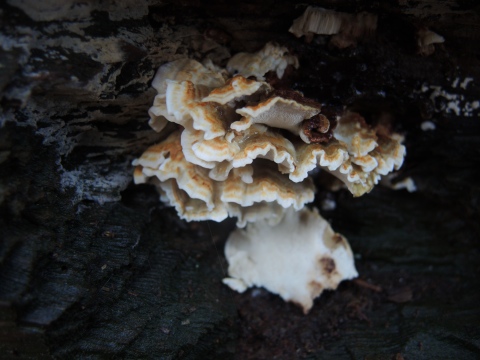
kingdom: Fungi
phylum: Basidiomycota
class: Agaricomycetes
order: Polyporales
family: Dacryobolaceae
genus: Oligoporus
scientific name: Oligoporus wakefieldiae
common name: række-kødporesvamp
